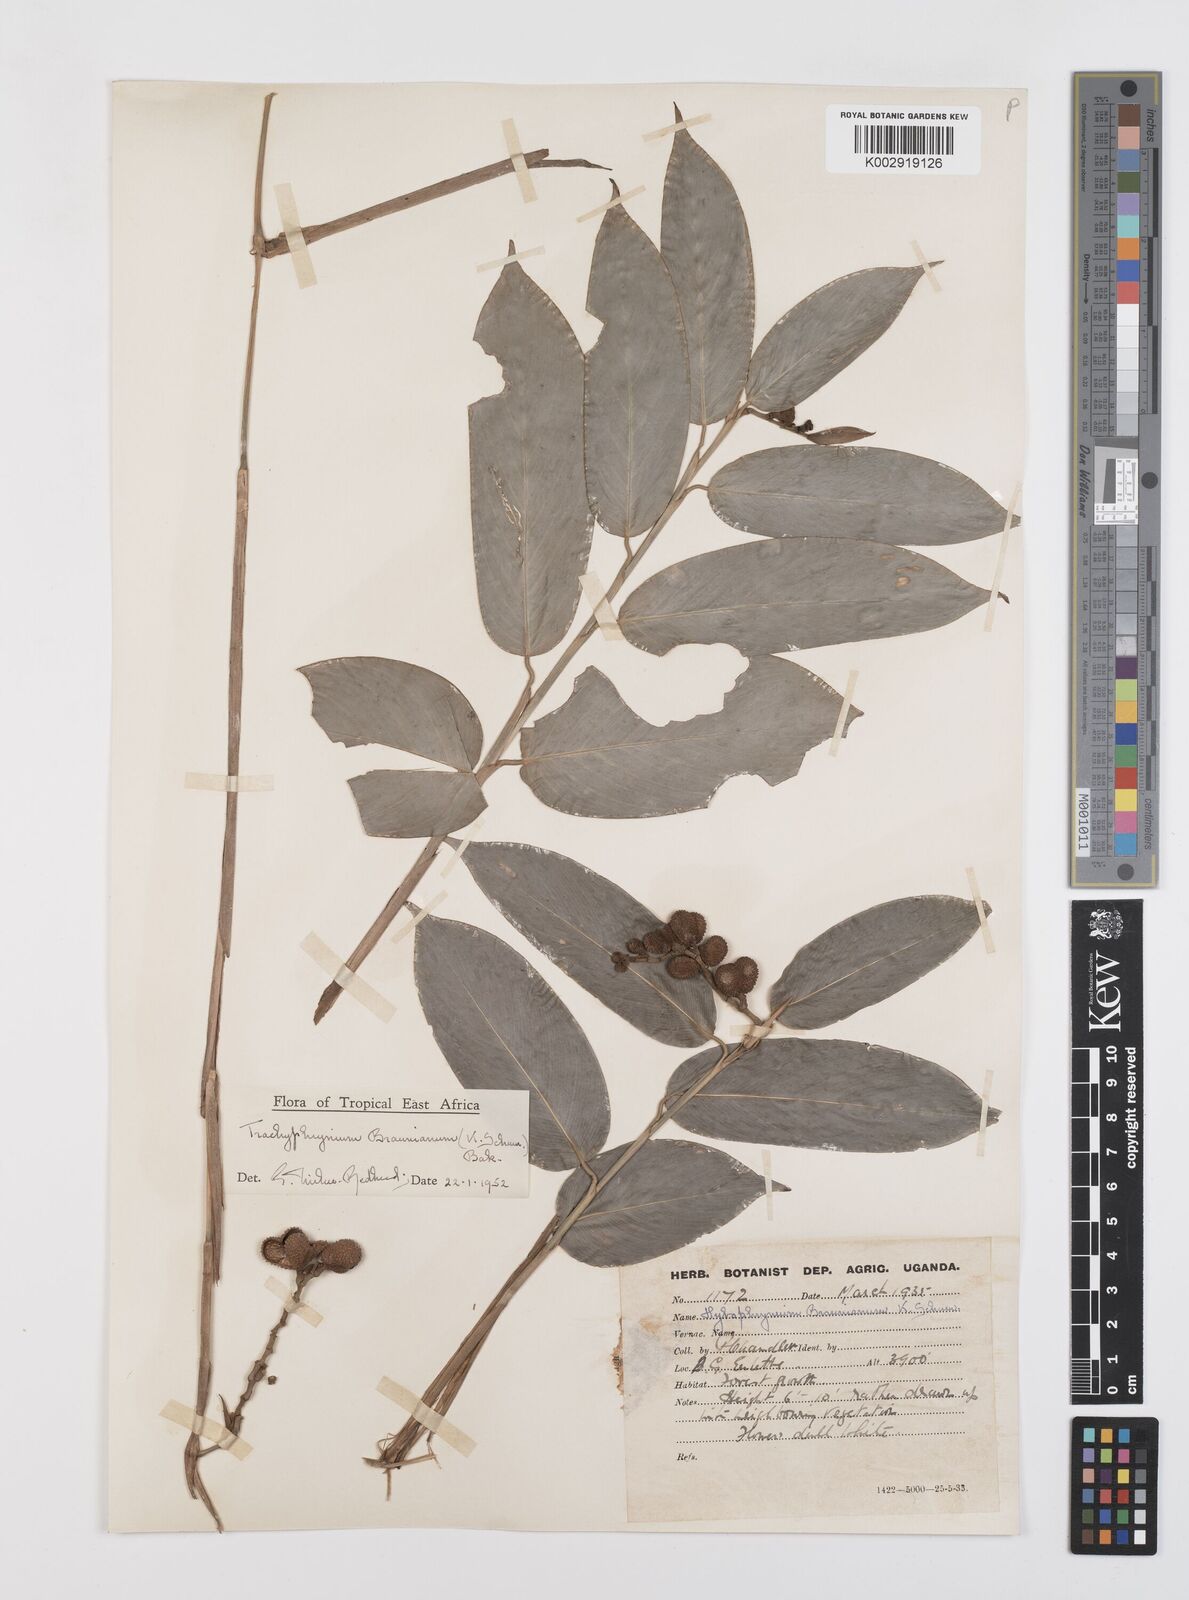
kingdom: Plantae
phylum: Tracheophyta
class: Liliopsida
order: Zingiberales
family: Marantaceae
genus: Trachyphrynium
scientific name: Trachyphrynium braunianum
